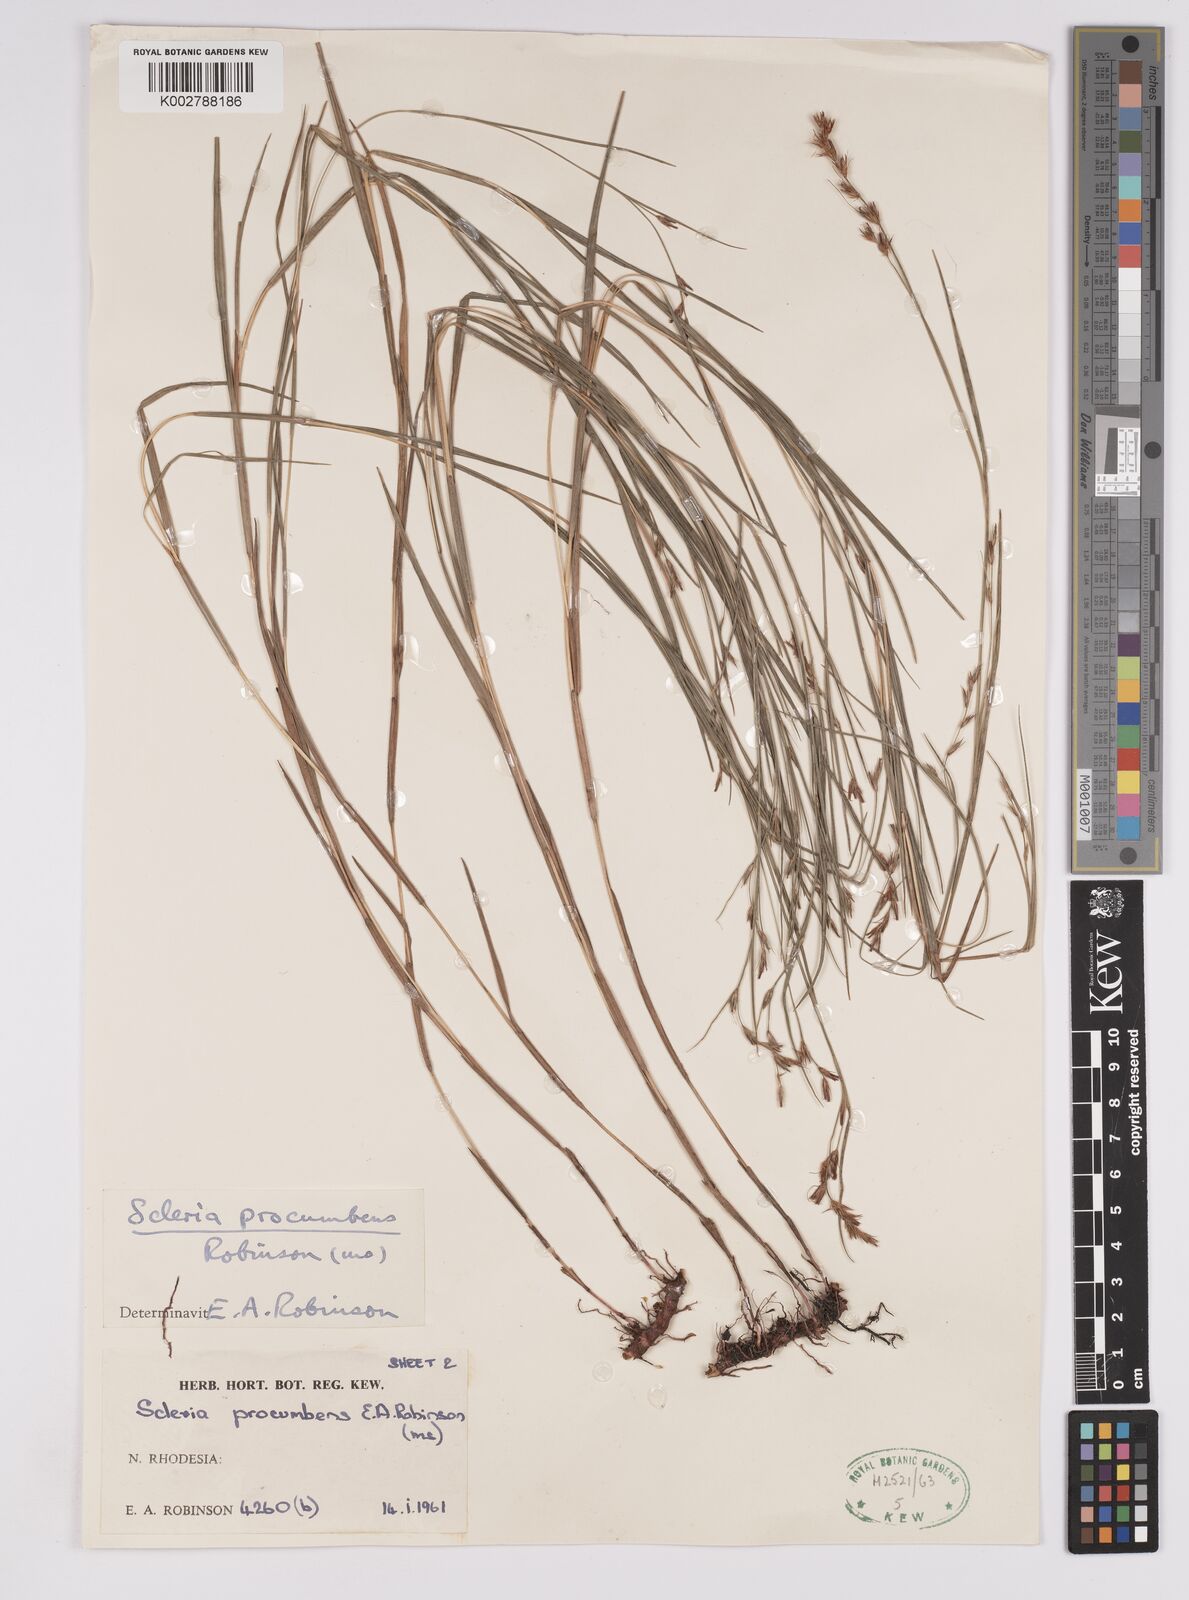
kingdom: Plantae
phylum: Tracheophyta
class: Liliopsida
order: Poales
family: Cyperaceae
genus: Scleria
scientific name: Scleria procumbens
